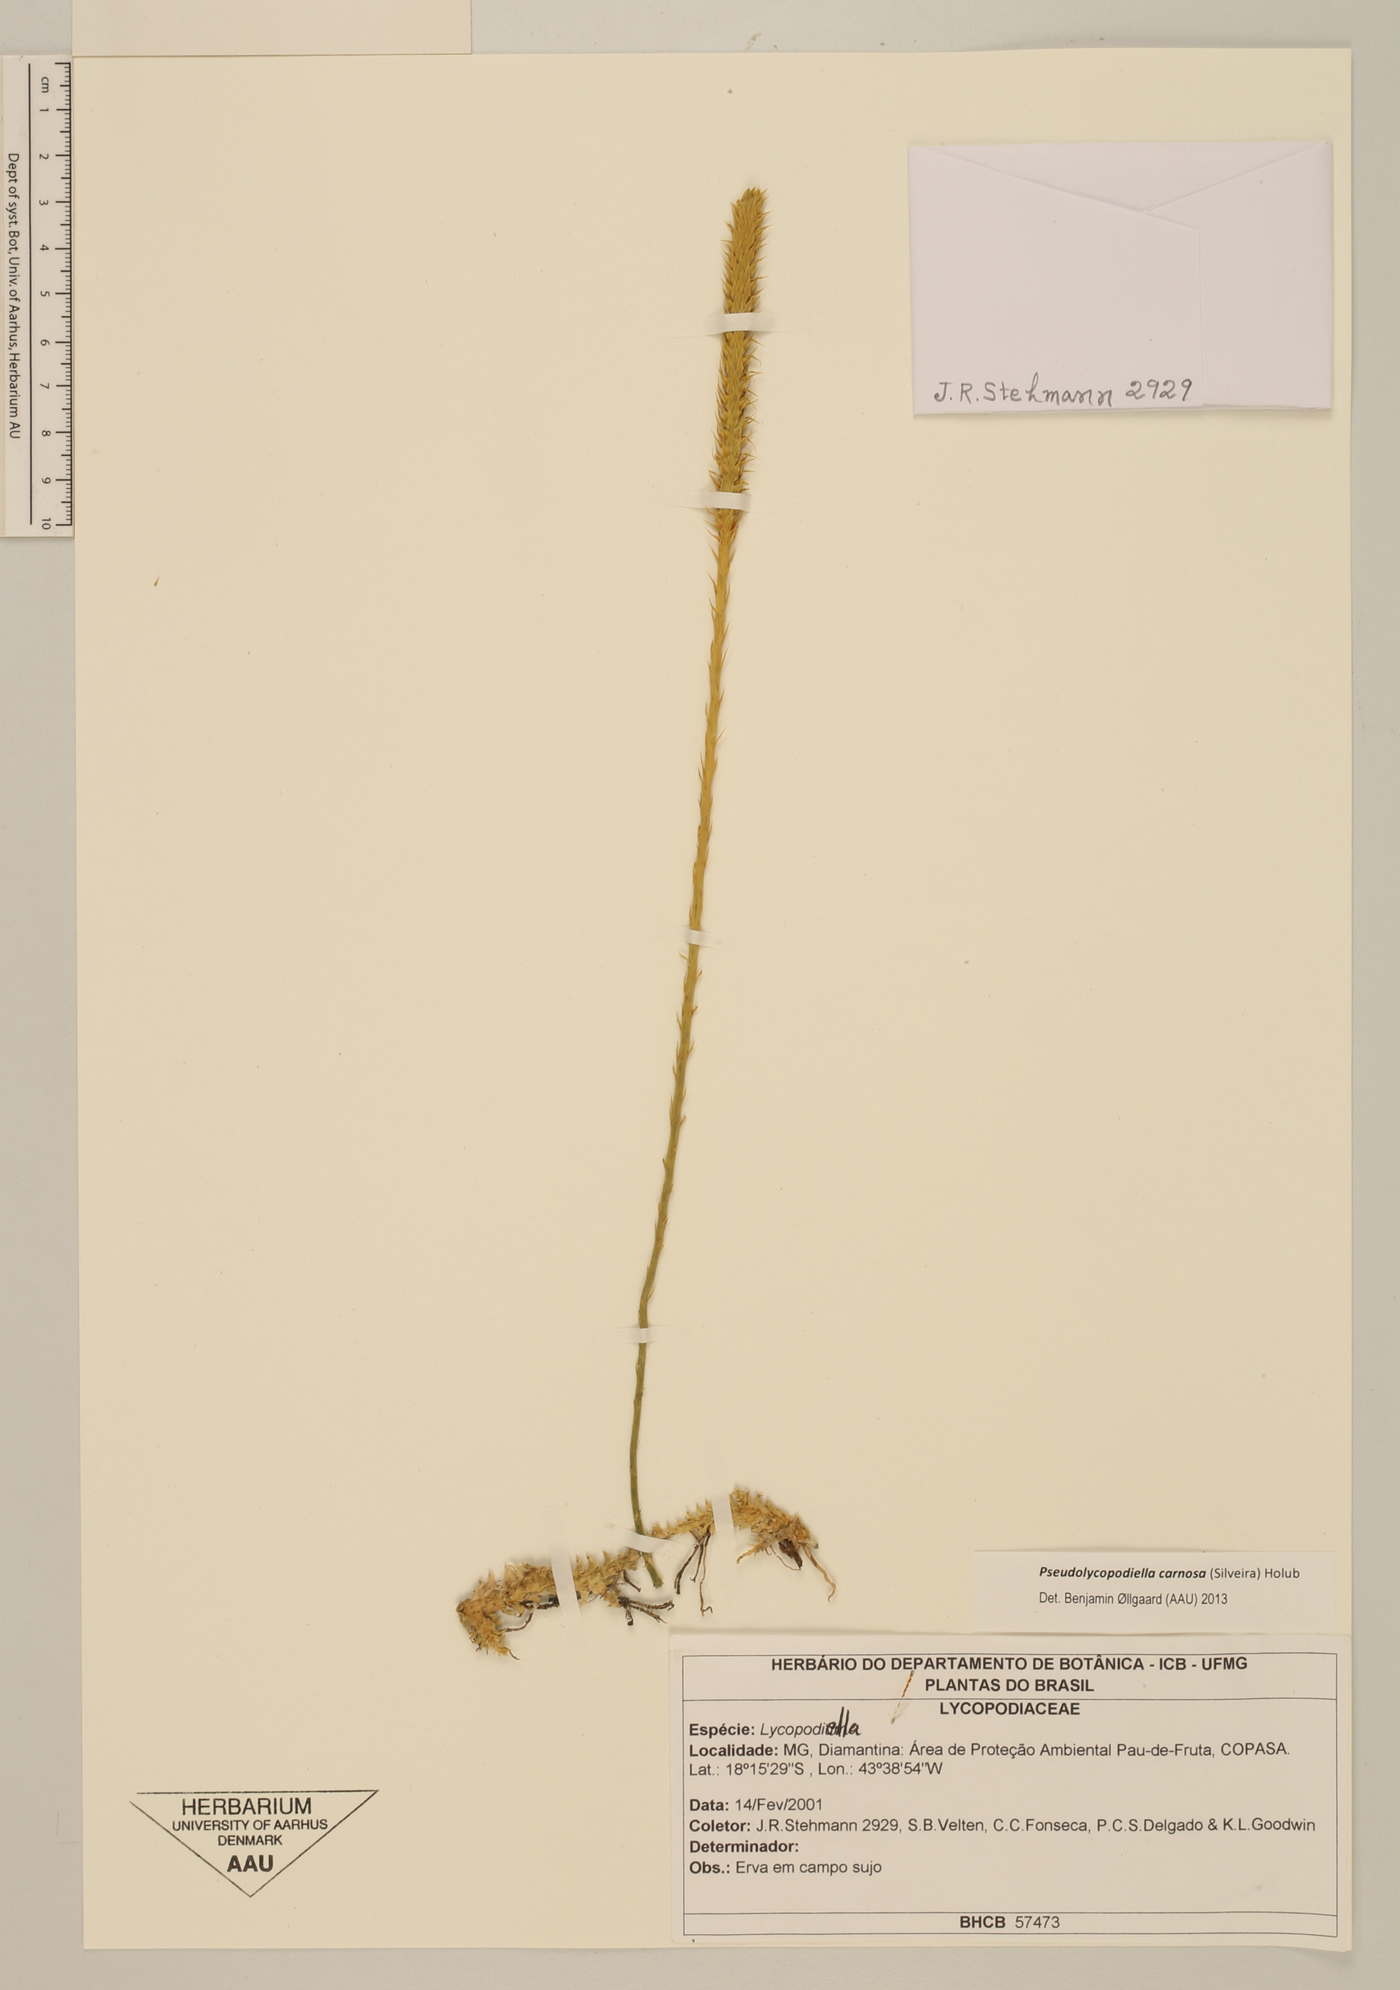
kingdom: Plantae
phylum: Tracheophyta
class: Lycopodiopsida
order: Lycopodiales
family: Lycopodiaceae
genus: Pseudolycopodiella
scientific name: Pseudolycopodiella carnosa
